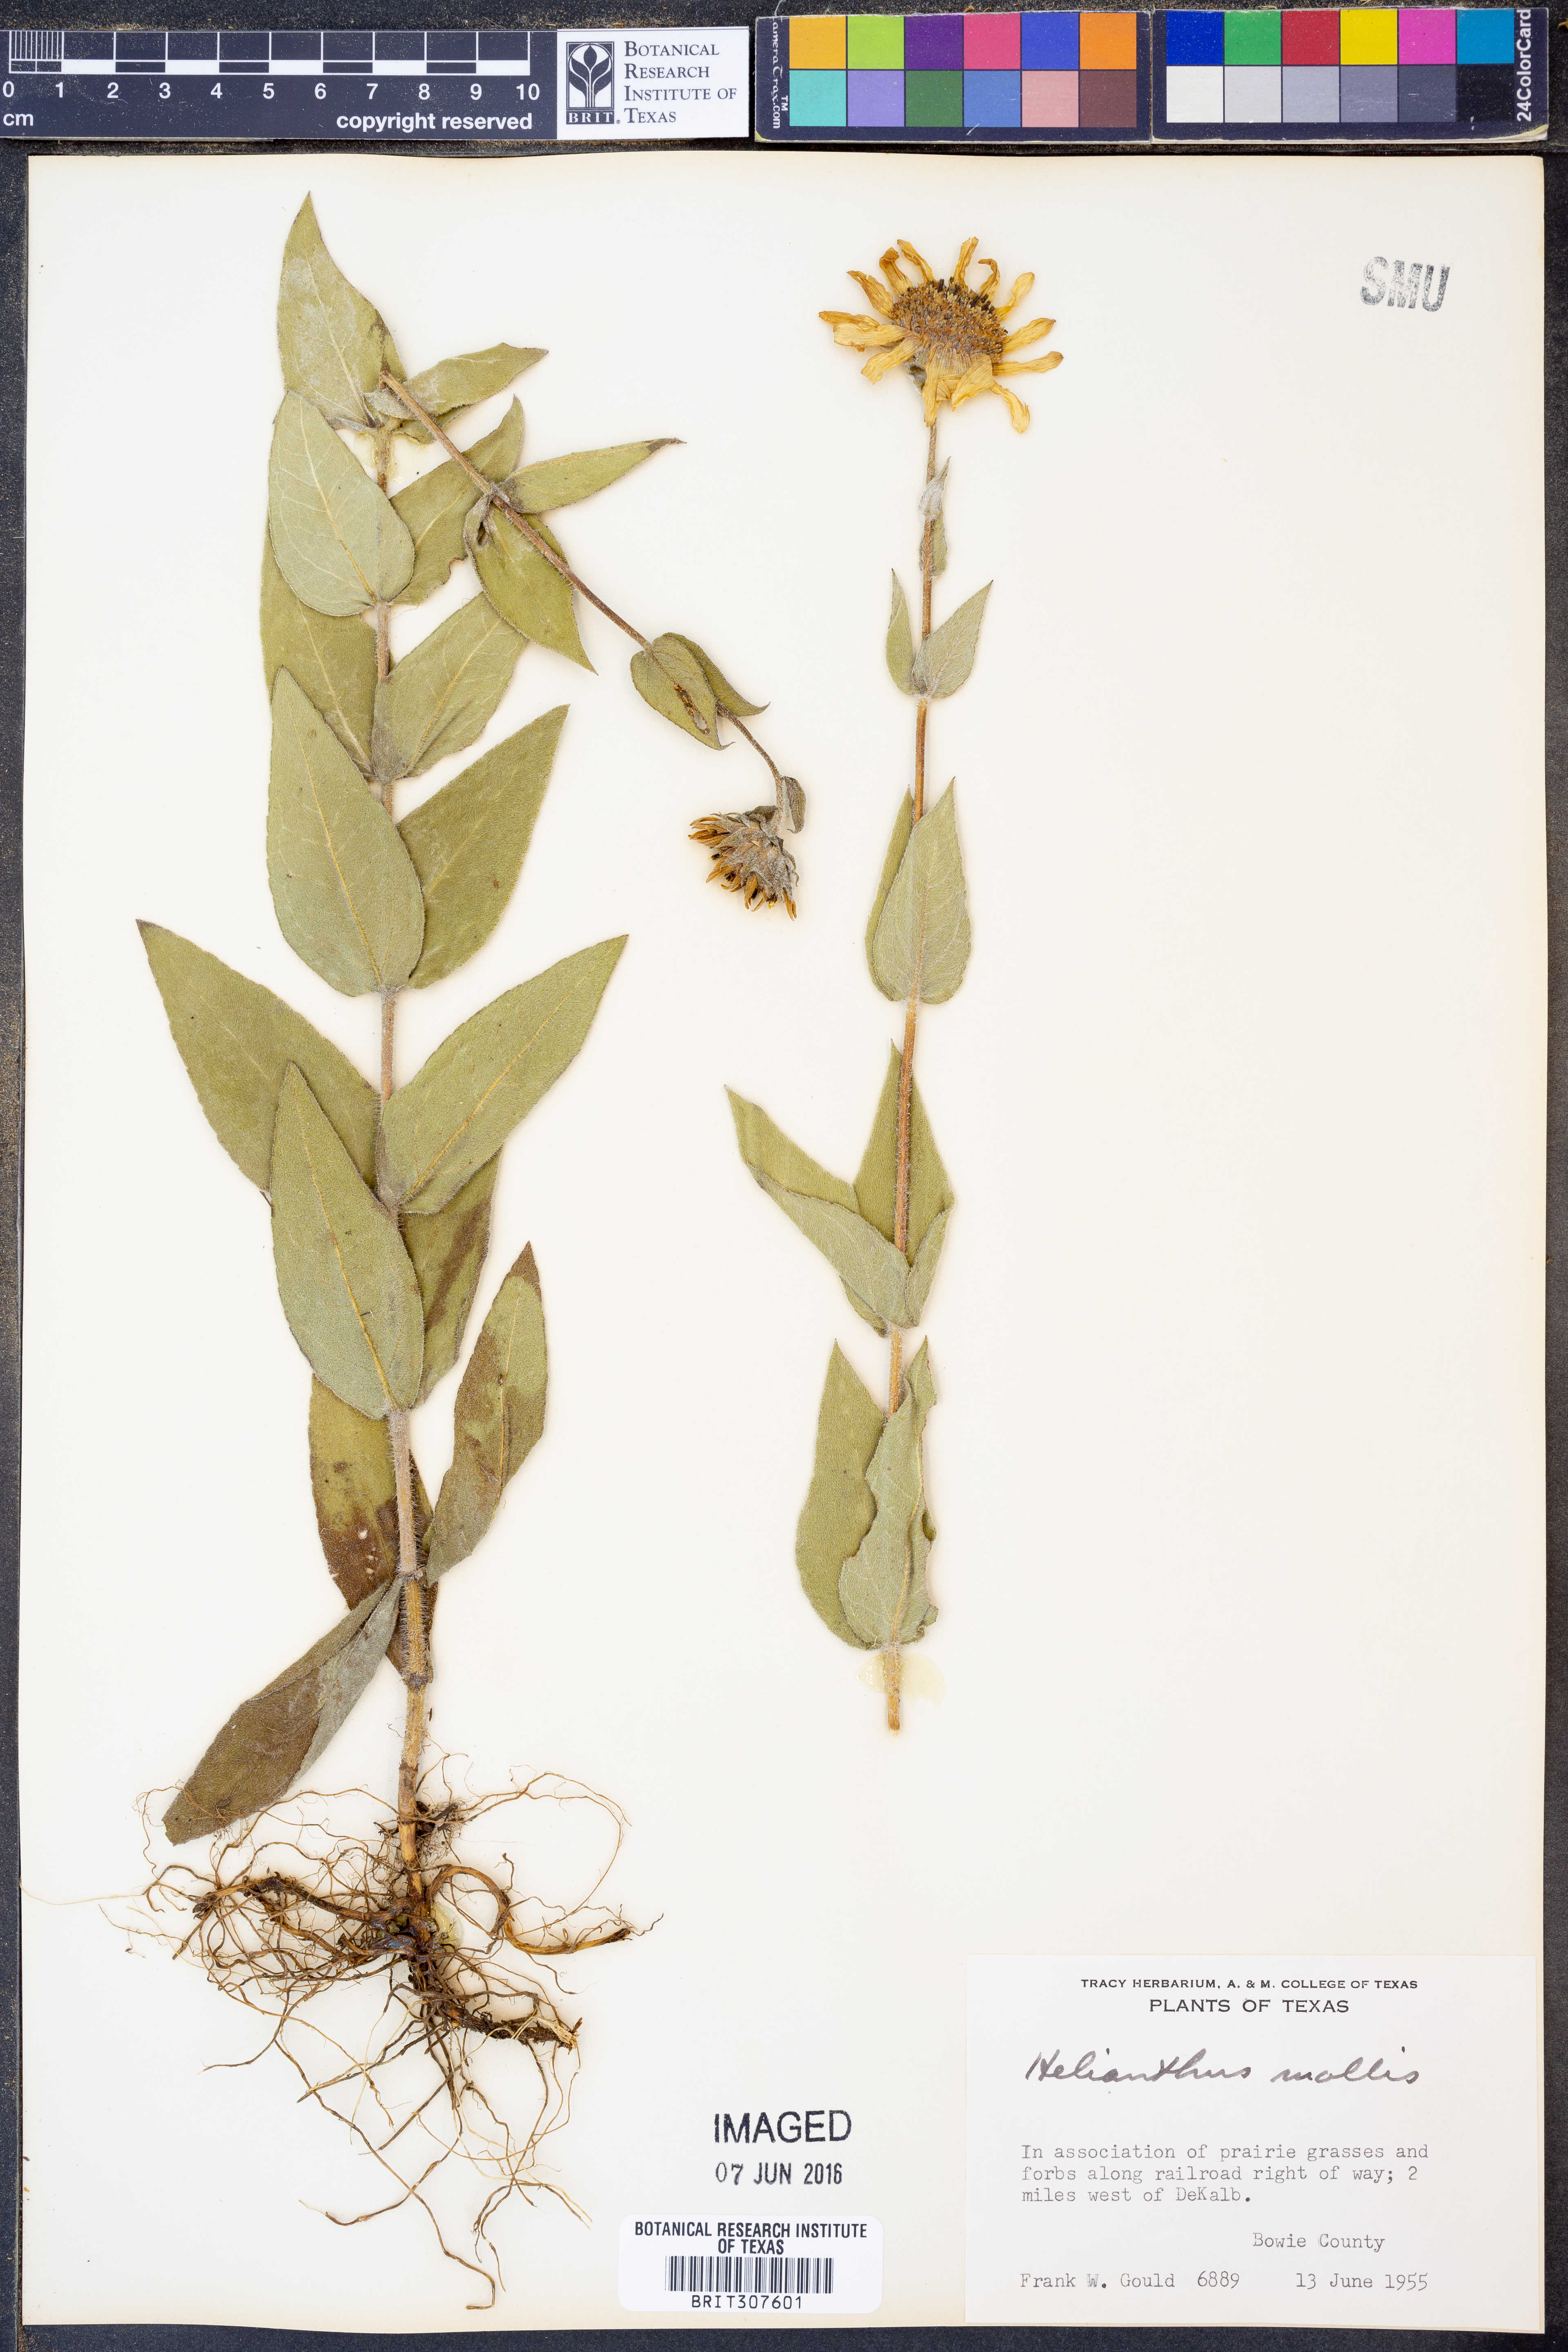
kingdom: Plantae
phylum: Tracheophyta
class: Magnoliopsida
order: Asterales
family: Asteraceae
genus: Helianthus
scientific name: Helianthus mollis
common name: Ashy sunflower
